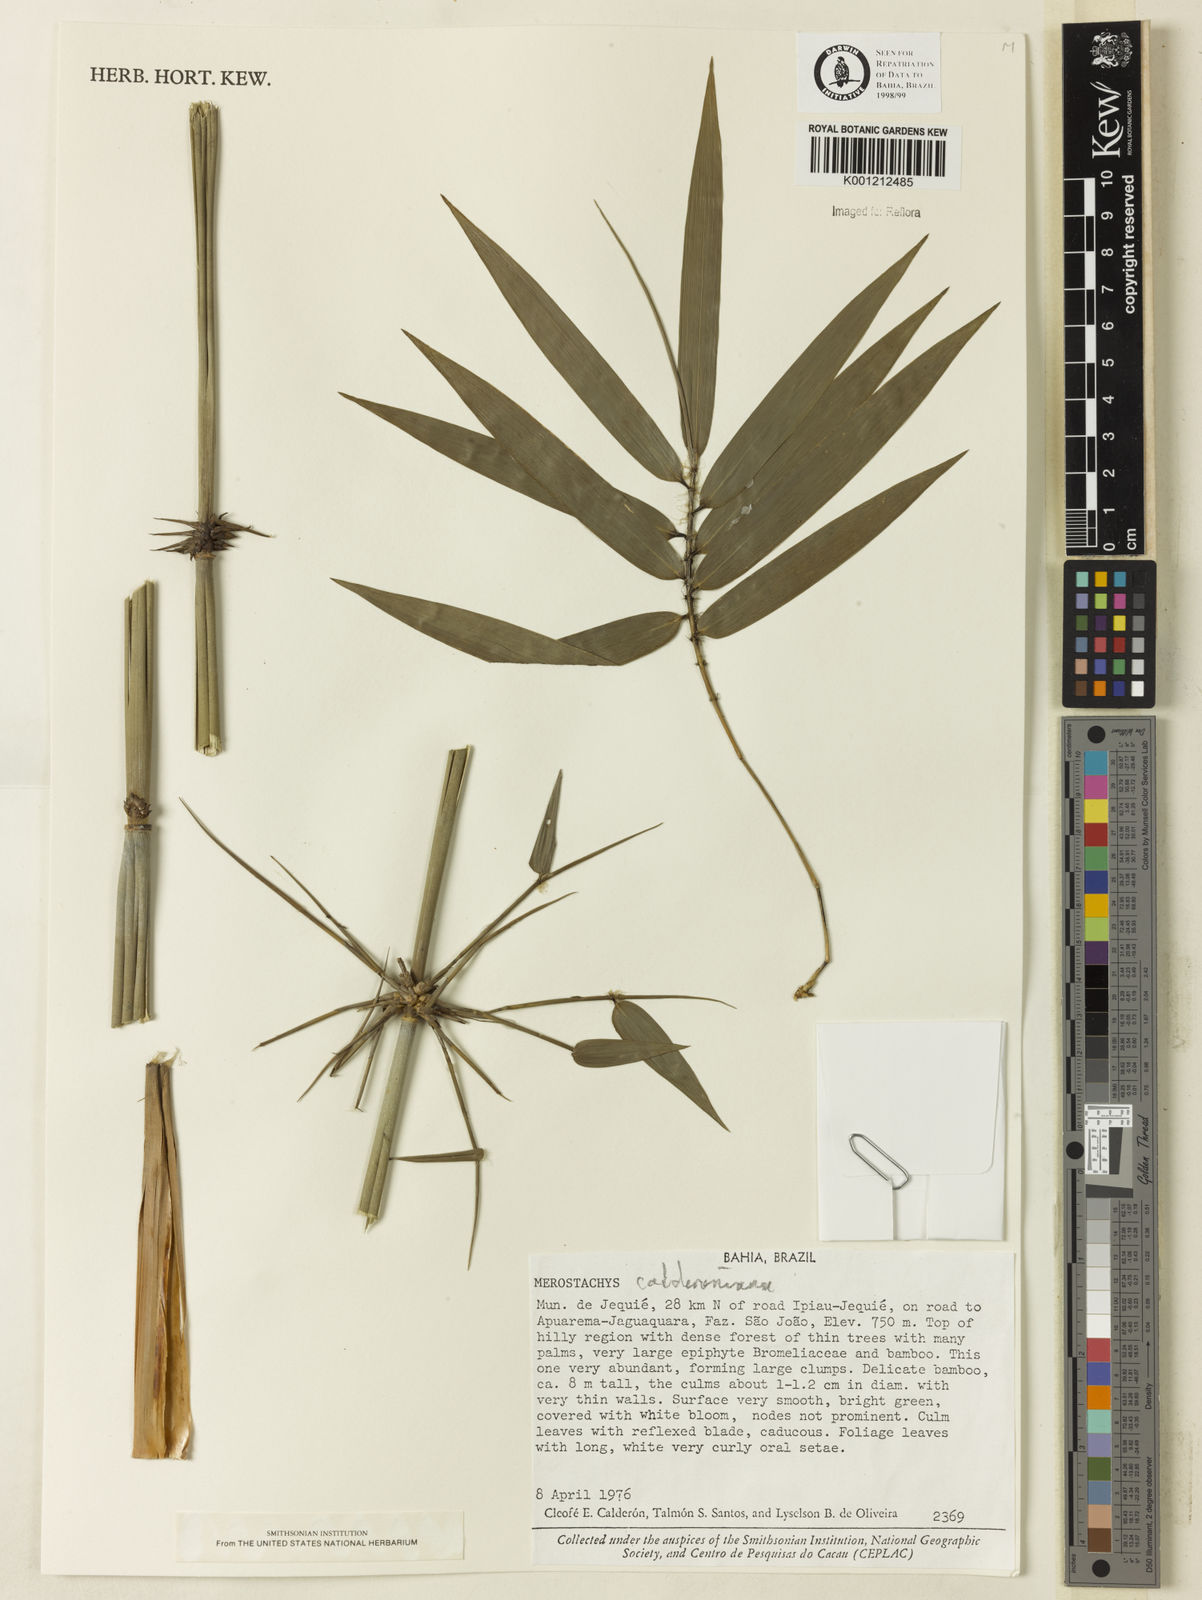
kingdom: Plantae
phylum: Tracheophyta
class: Liliopsida
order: Poales
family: Poaceae
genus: Merostachys
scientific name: Merostachys calderoniana
